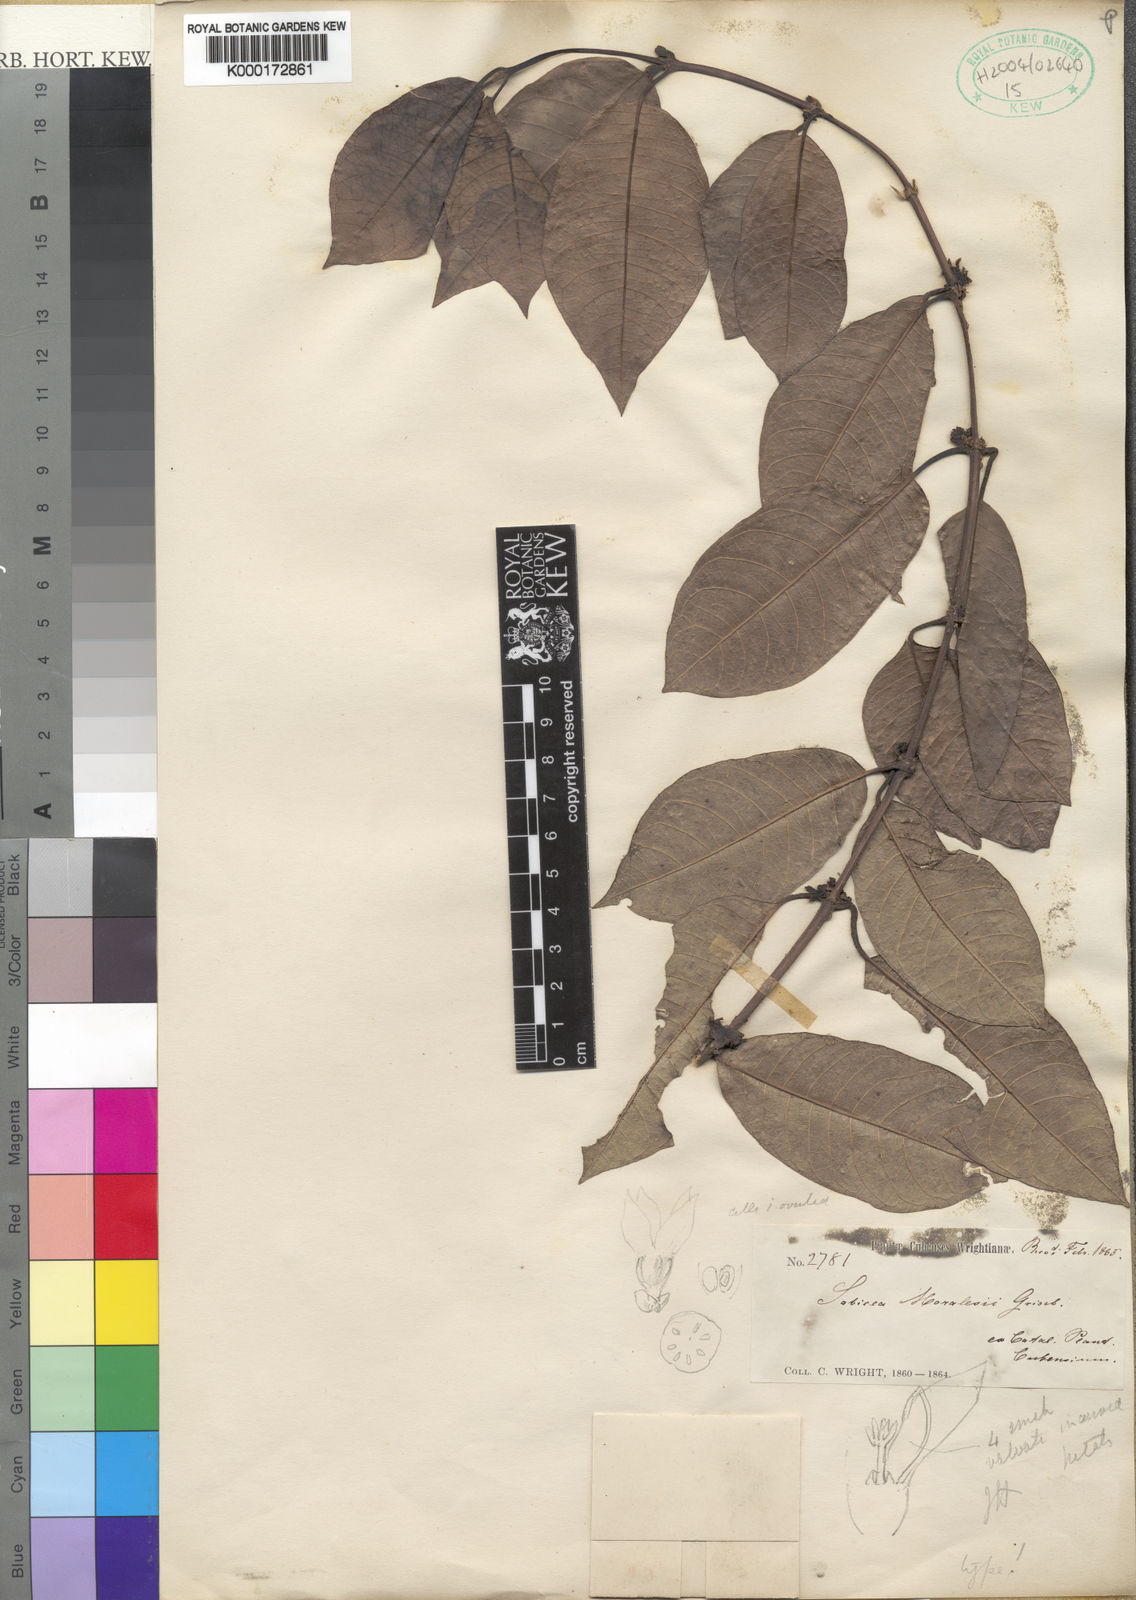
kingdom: Plantae
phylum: Tracheophyta
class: Magnoliopsida
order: Gentianales
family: Rubiaceae
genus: Lasianthus
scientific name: Lasianthus lanceolatus
